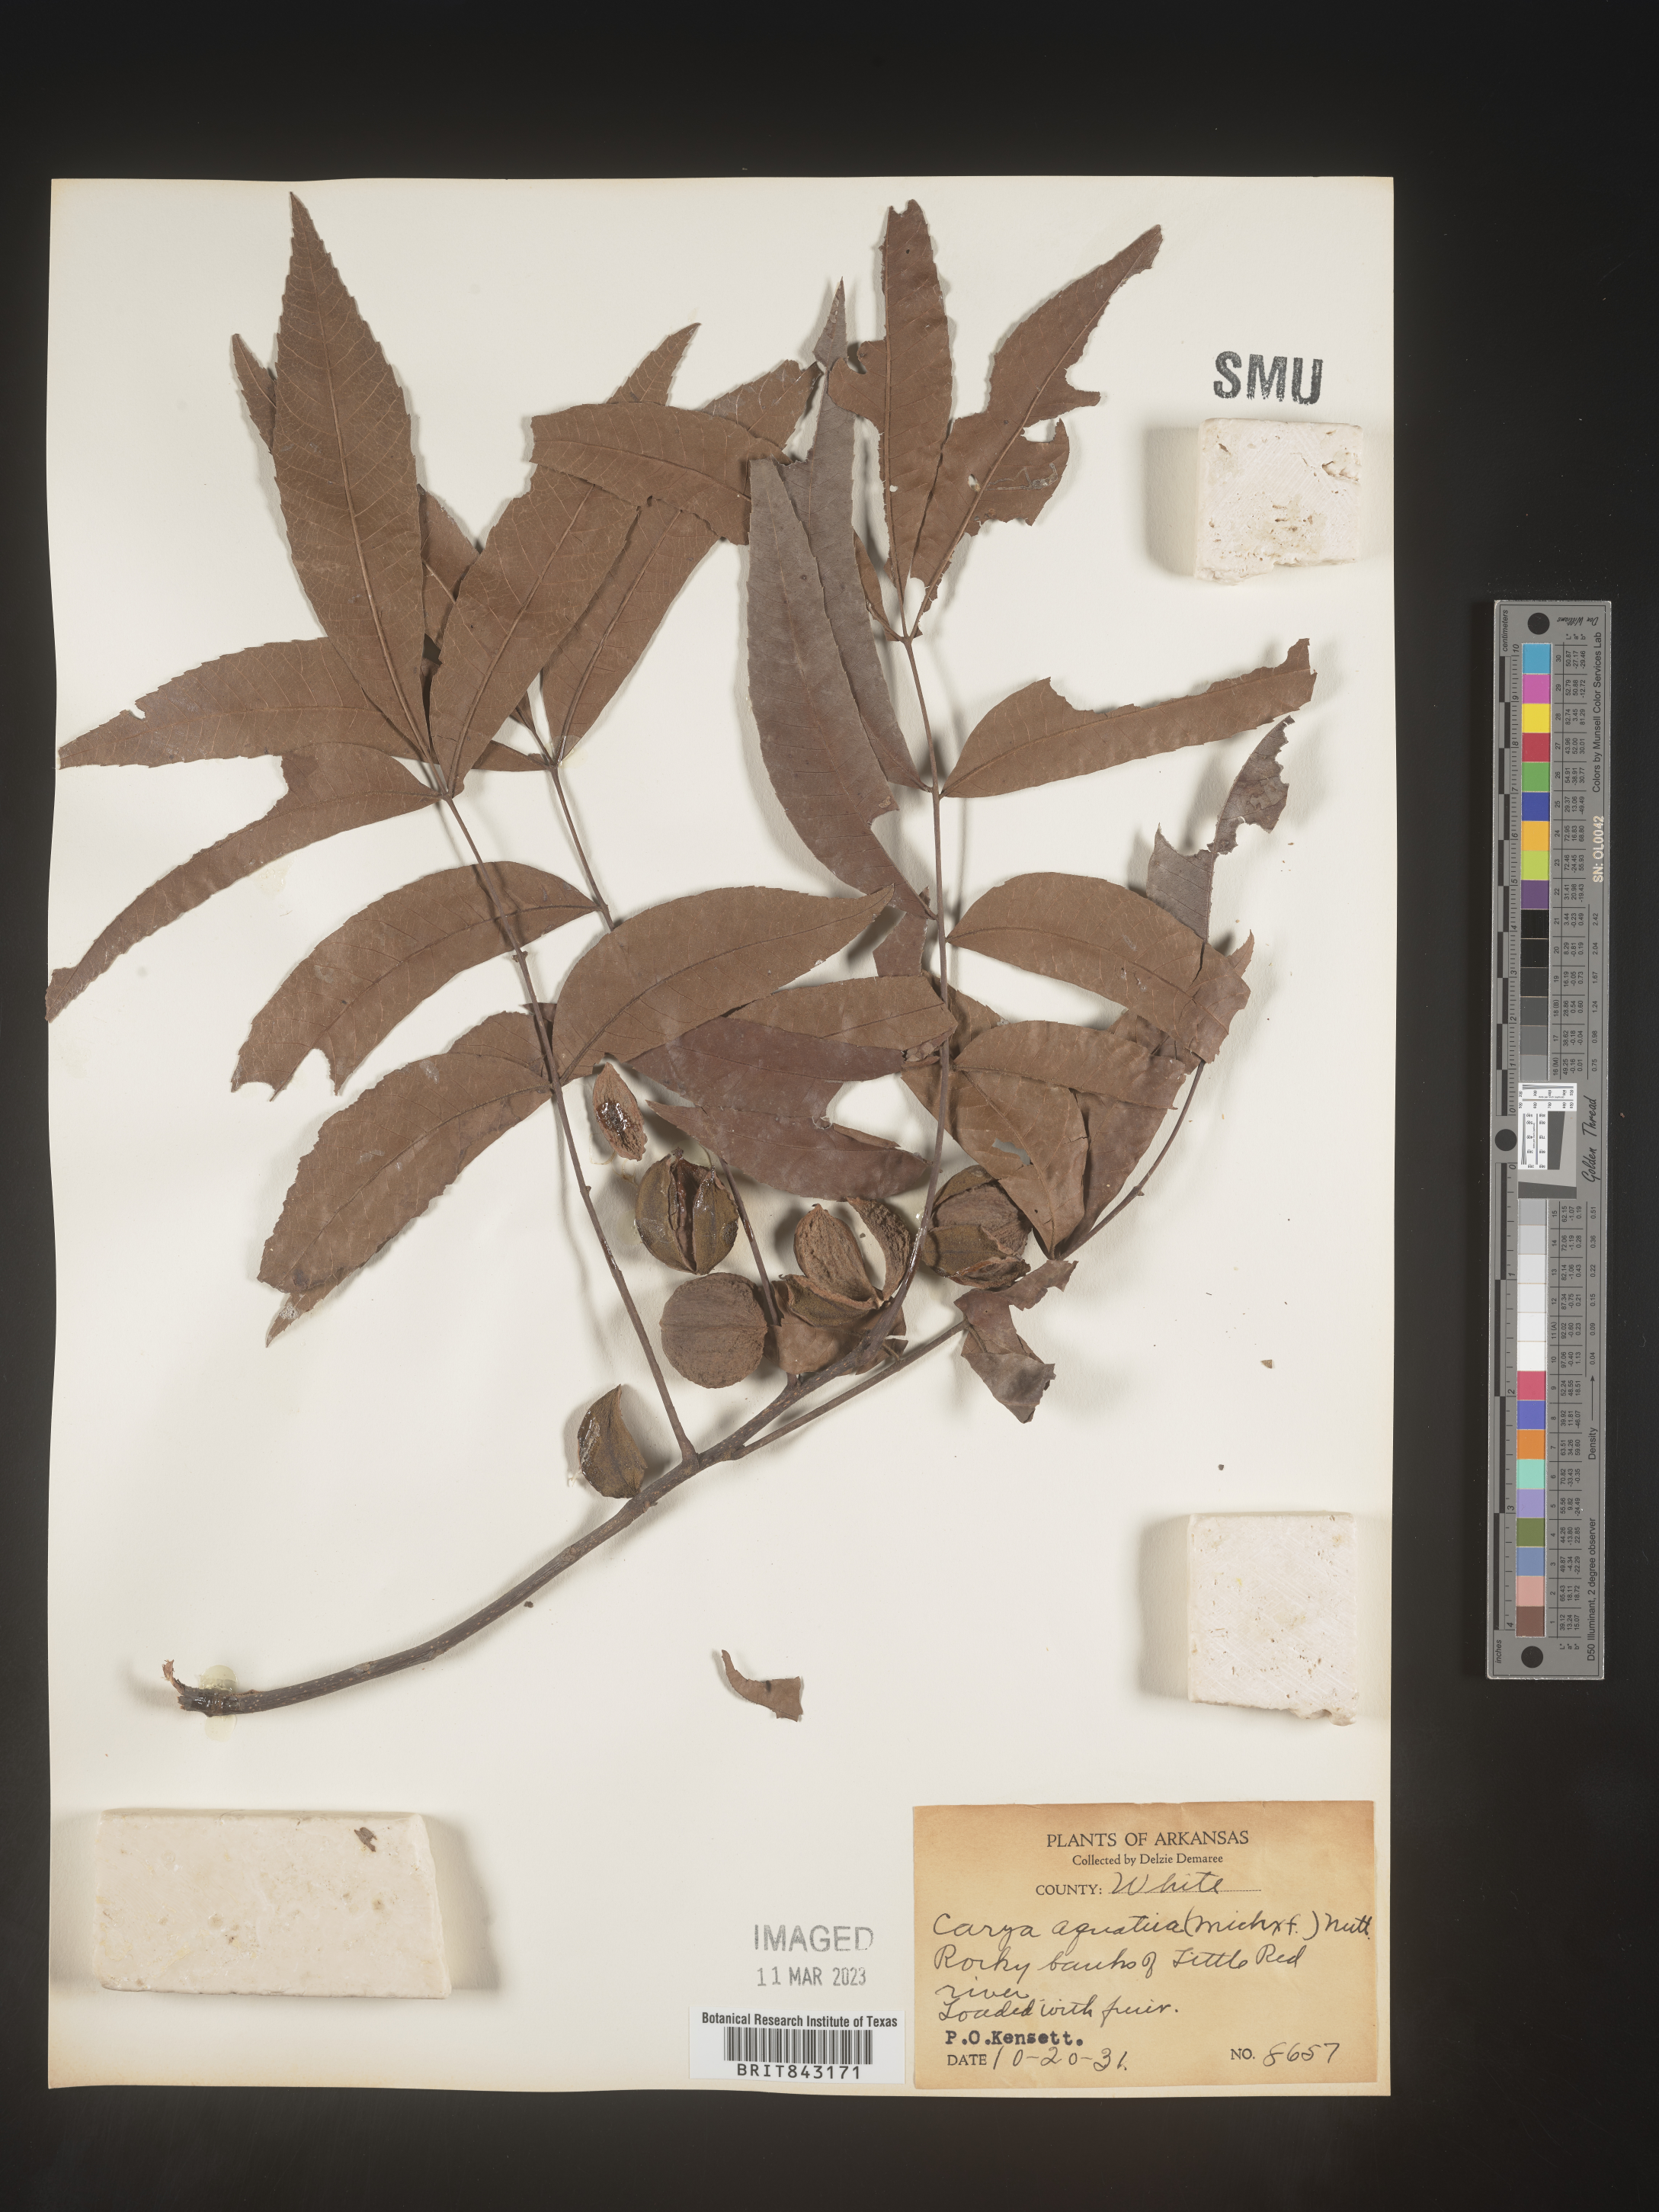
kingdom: Plantae
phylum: Tracheophyta
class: Magnoliopsida
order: Fagales
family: Juglandaceae
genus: Carya
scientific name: Carya aquatica
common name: Water hickory
